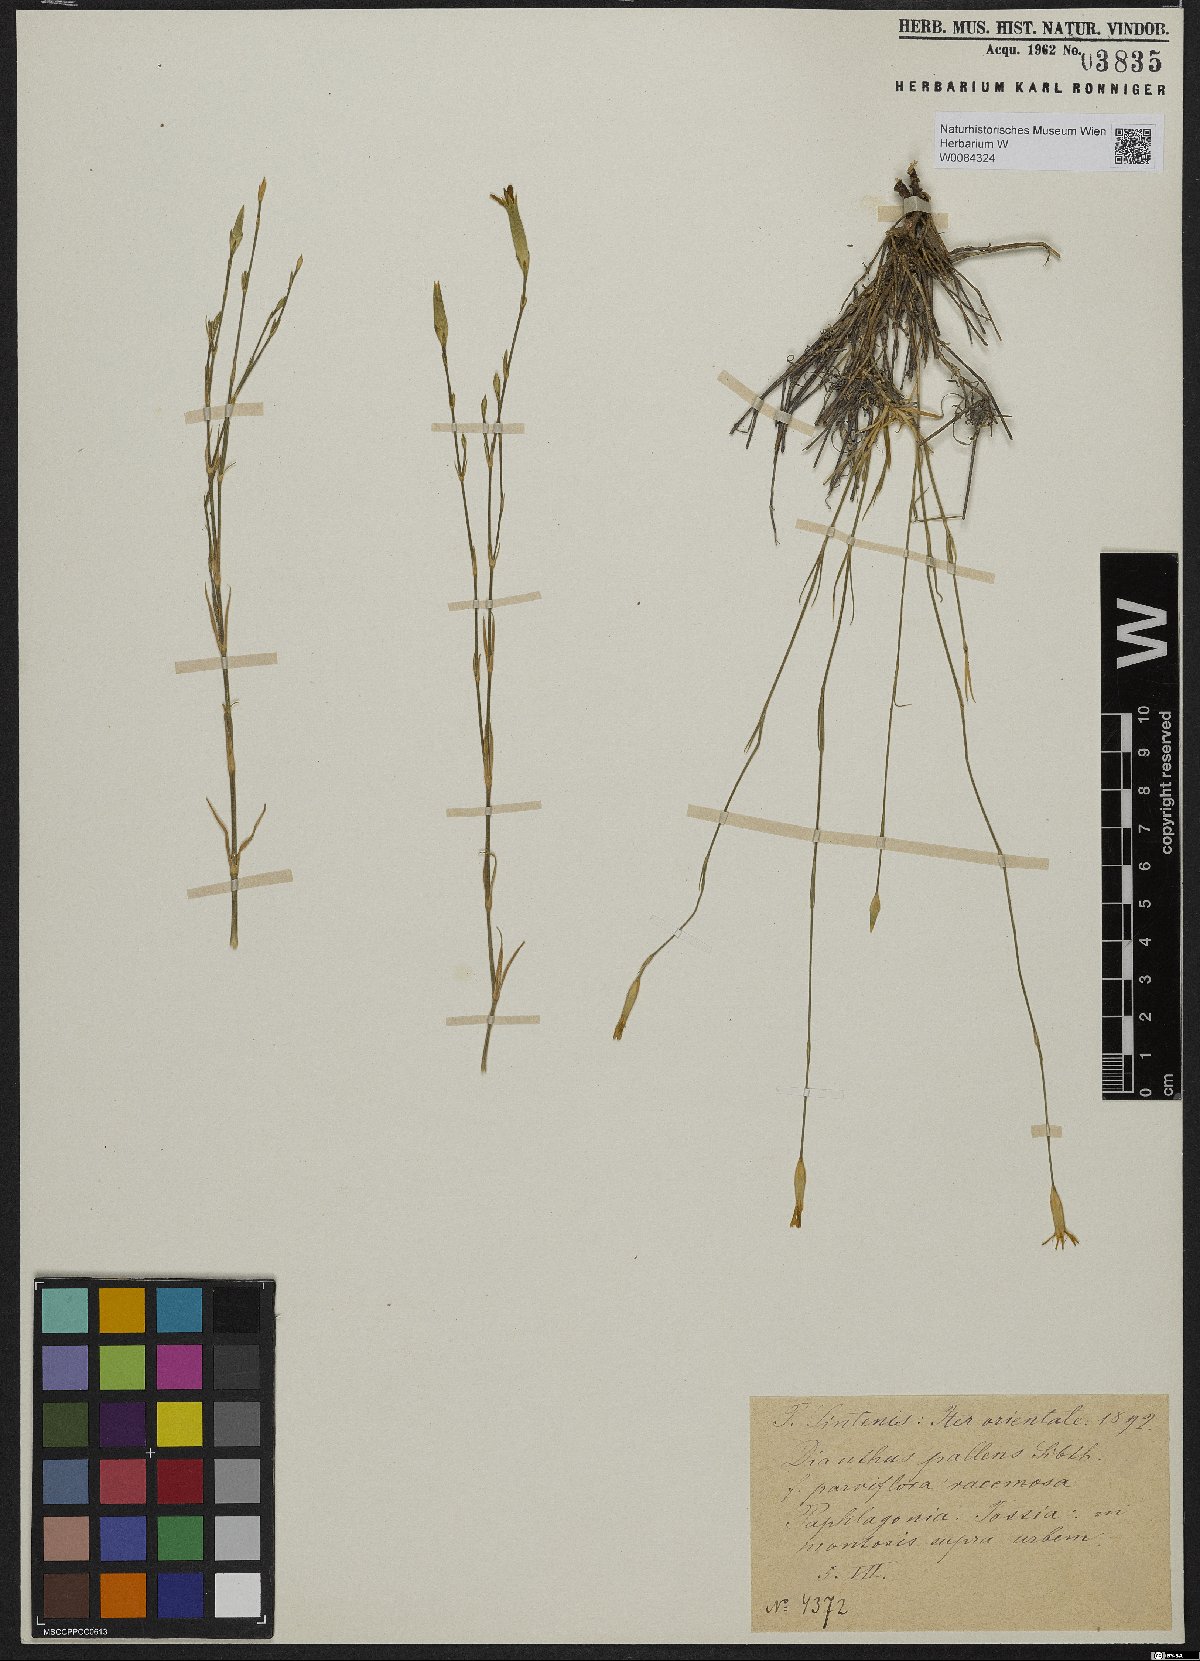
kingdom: Plantae
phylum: Tracheophyta
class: Magnoliopsida
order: Caryophyllales
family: Caryophyllaceae
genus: Dianthus
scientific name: Dianthus monadelphus
